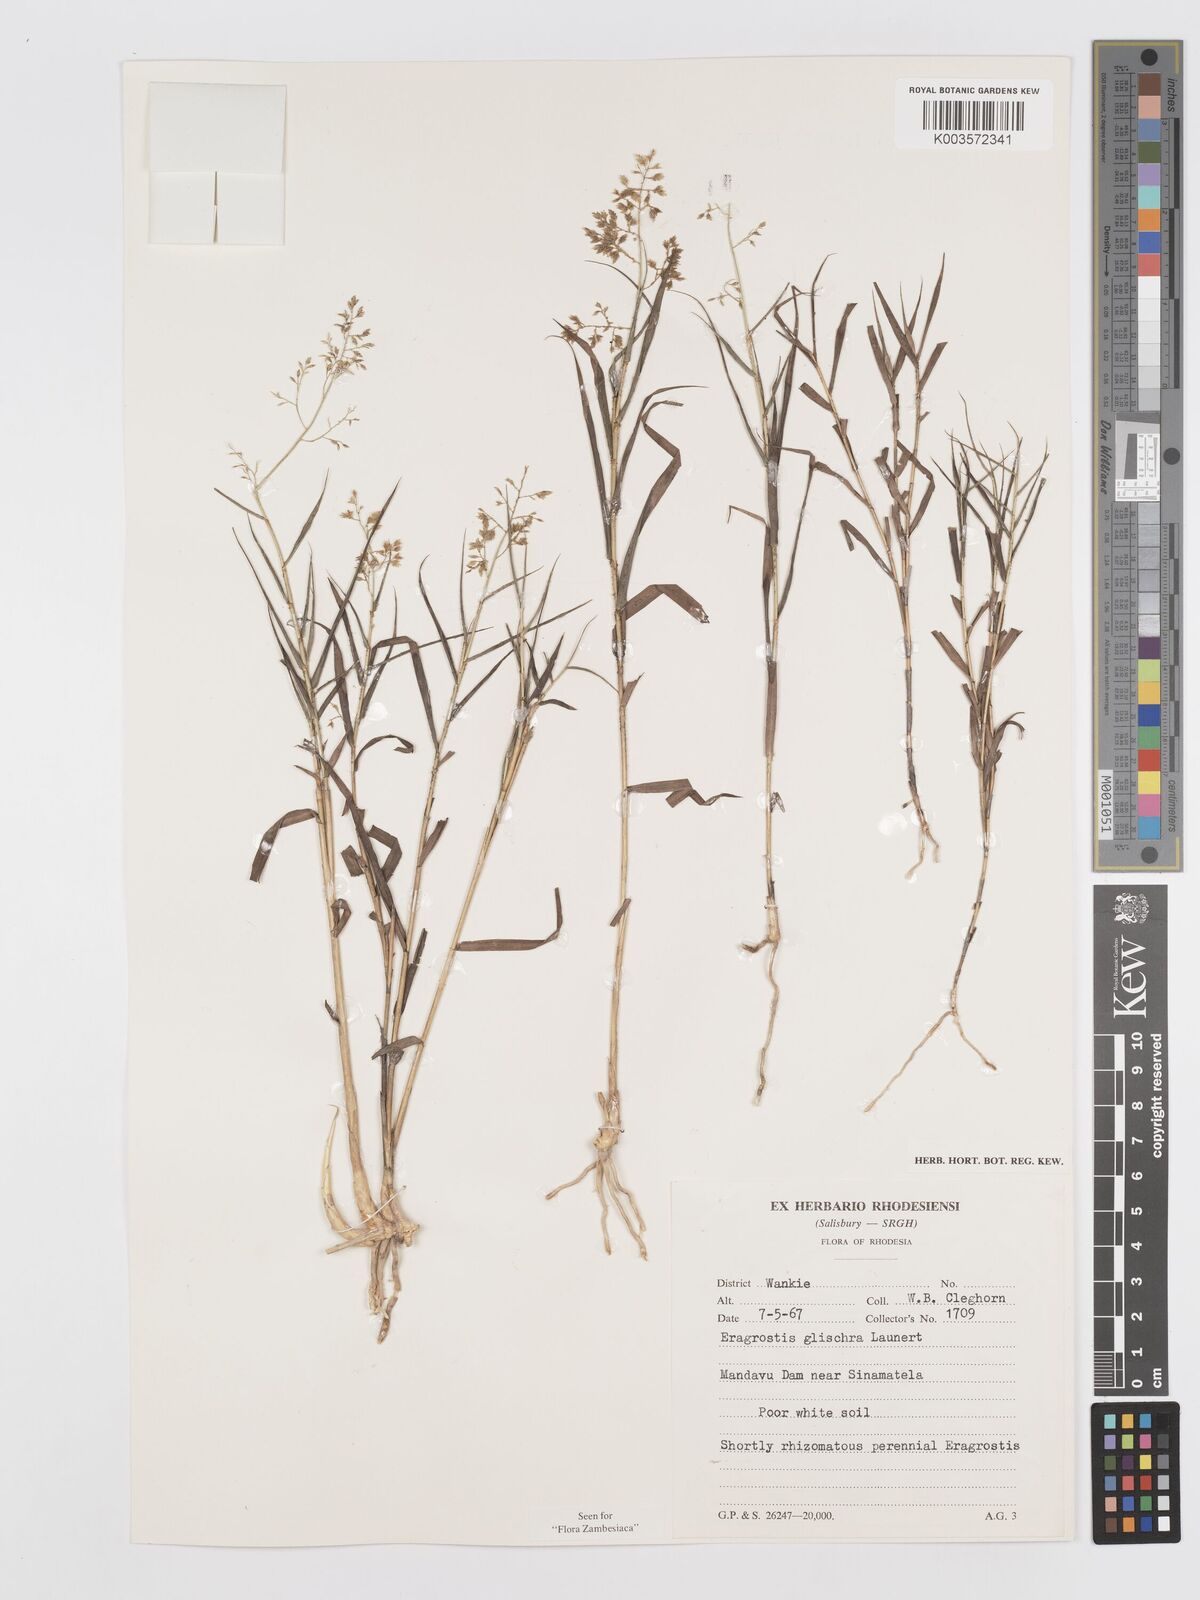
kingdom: Plantae
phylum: Tracheophyta
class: Liliopsida
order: Poales
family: Poaceae
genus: Eragrostis
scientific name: Eragrostis glischra
